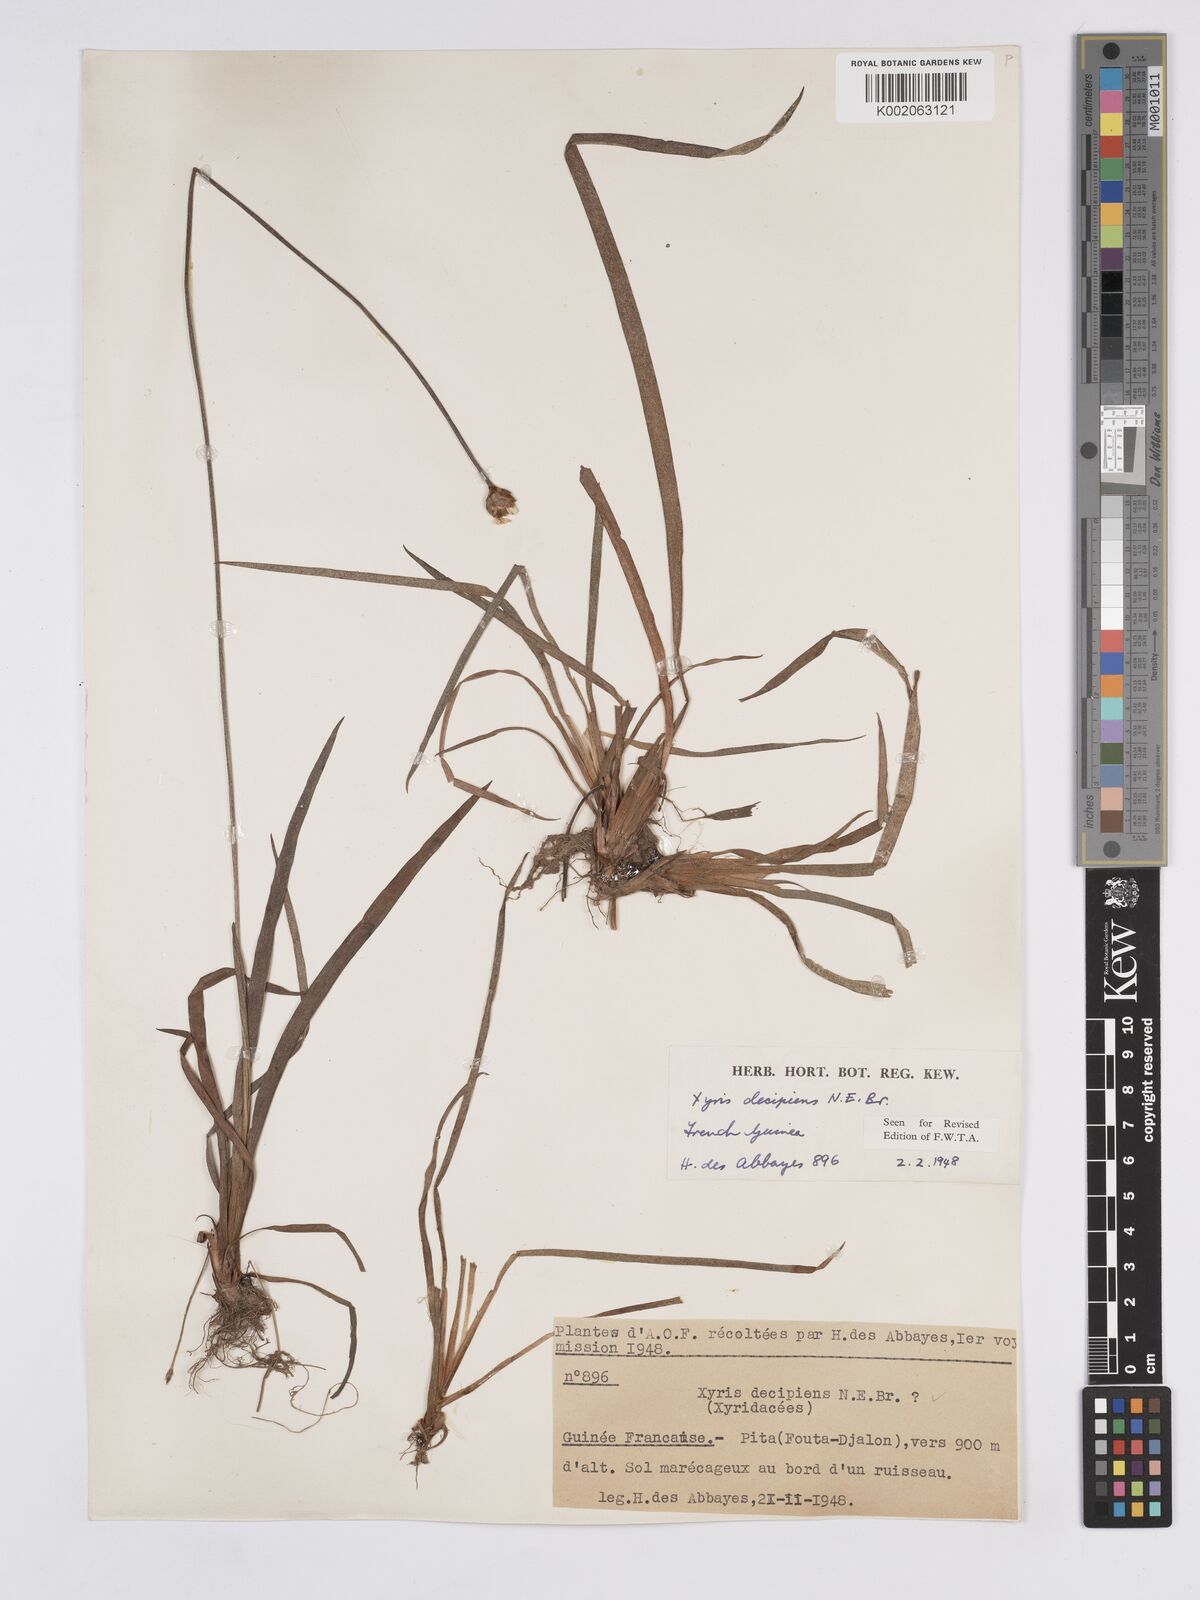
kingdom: Plantae
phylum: Tracheophyta
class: Liliopsida
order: Poales
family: Xyridaceae
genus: Xyris
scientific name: Xyris decipiens
